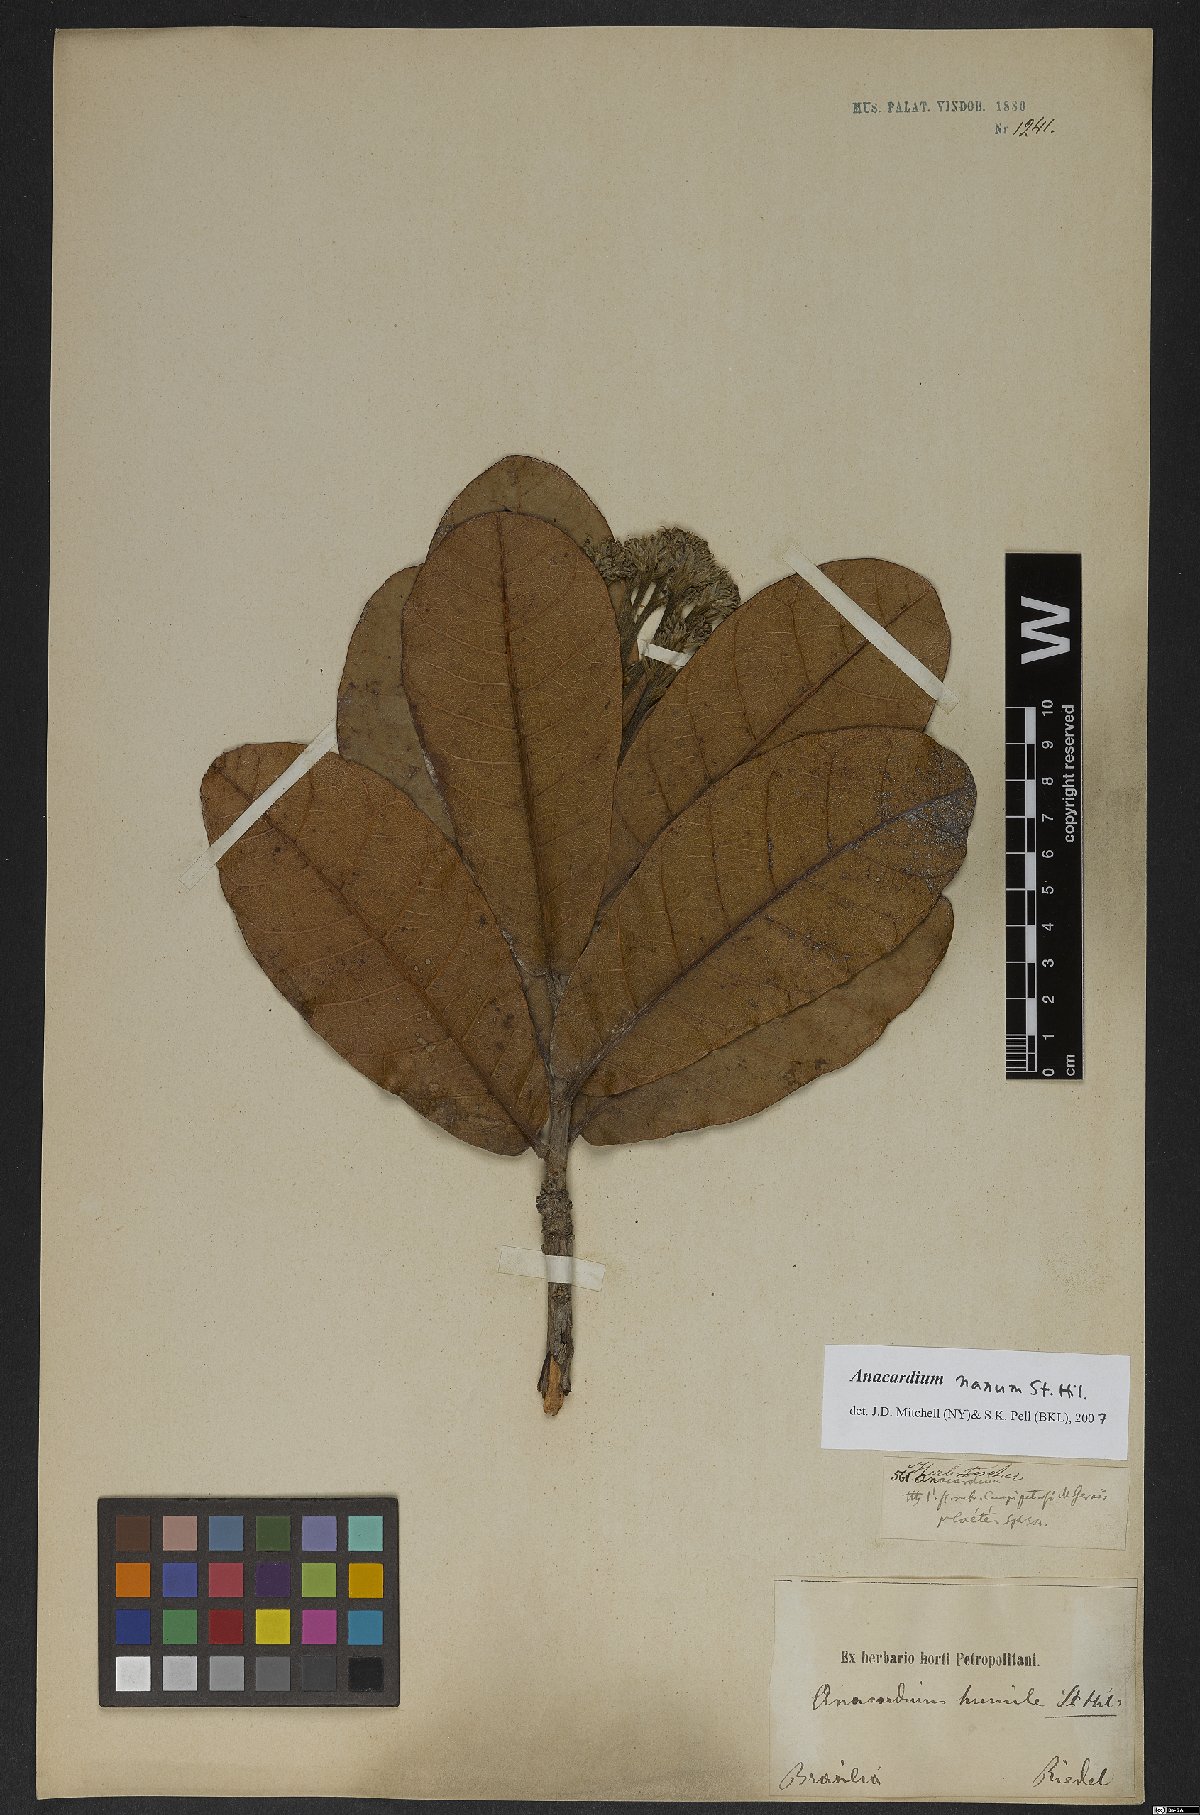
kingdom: Plantae
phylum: Tracheophyta
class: Magnoliopsida
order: Sapindales
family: Anacardiaceae
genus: Anacardium
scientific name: Anacardium nanum
